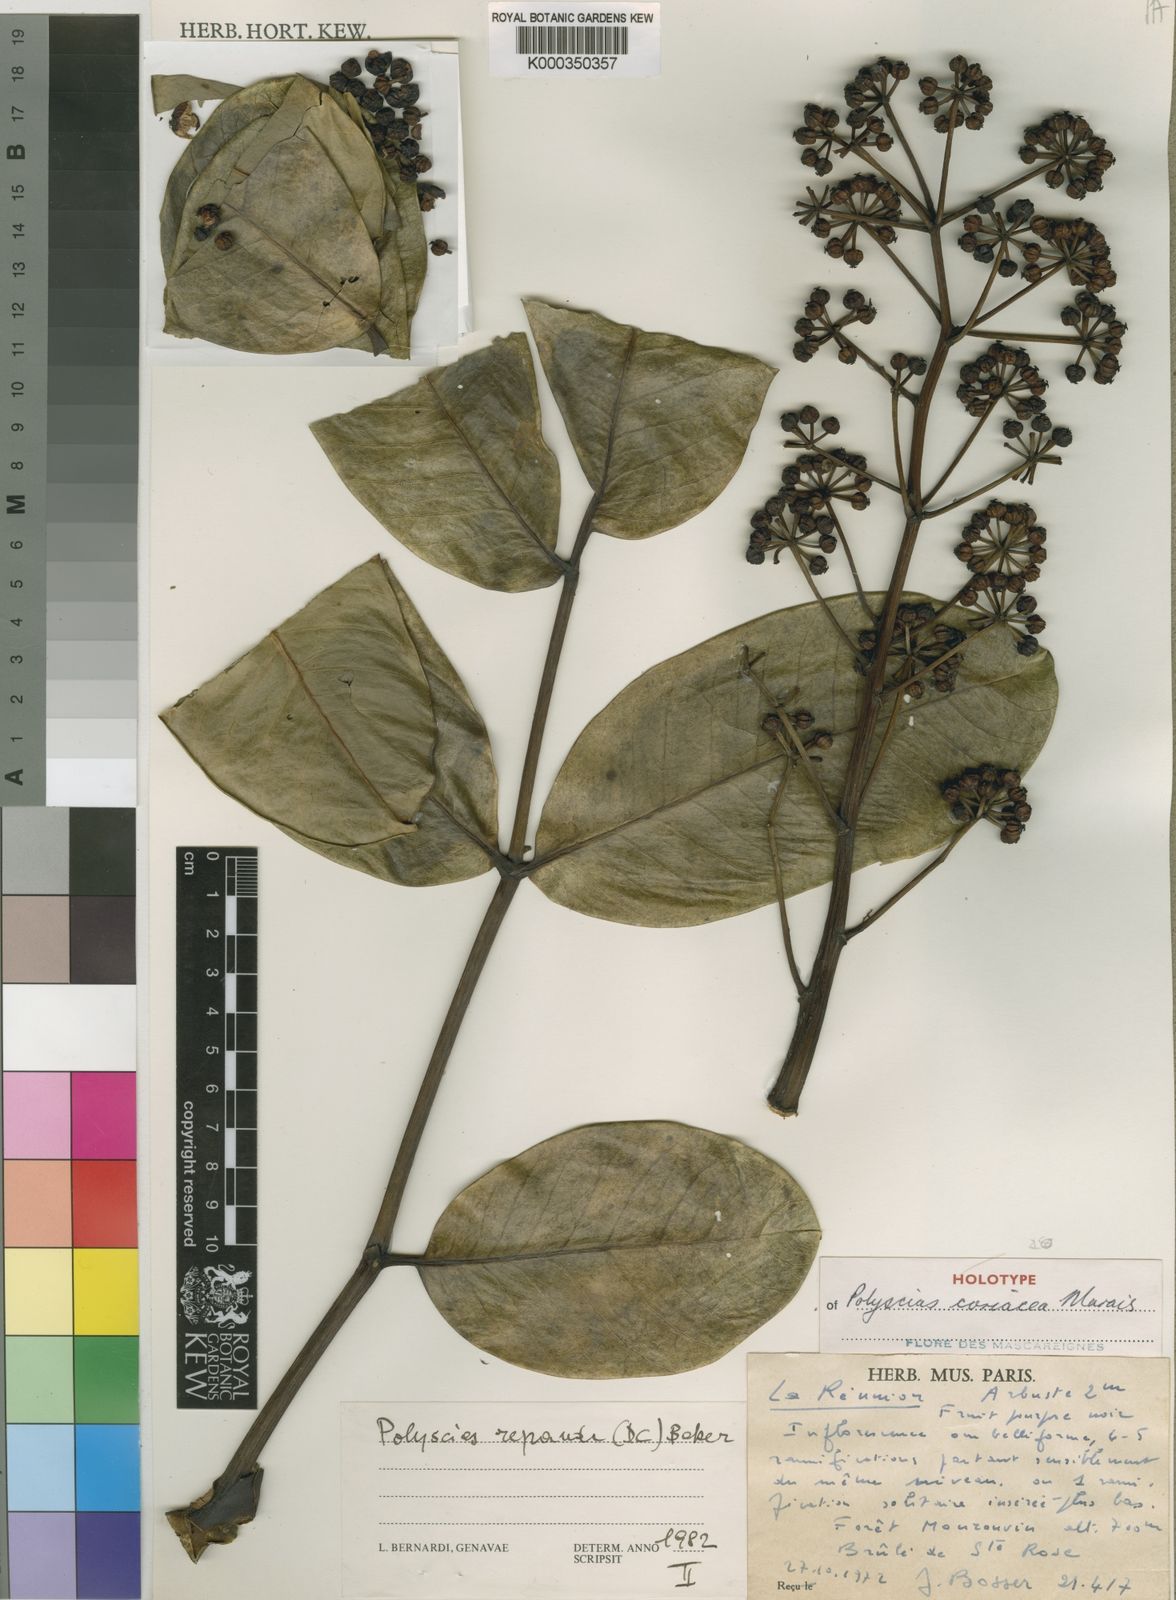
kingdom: Plantae
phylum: Tracheophyta
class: Magnoliopsida
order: Apiales
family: Araliaceae
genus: Polyscias
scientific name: Polyscias coriacea
